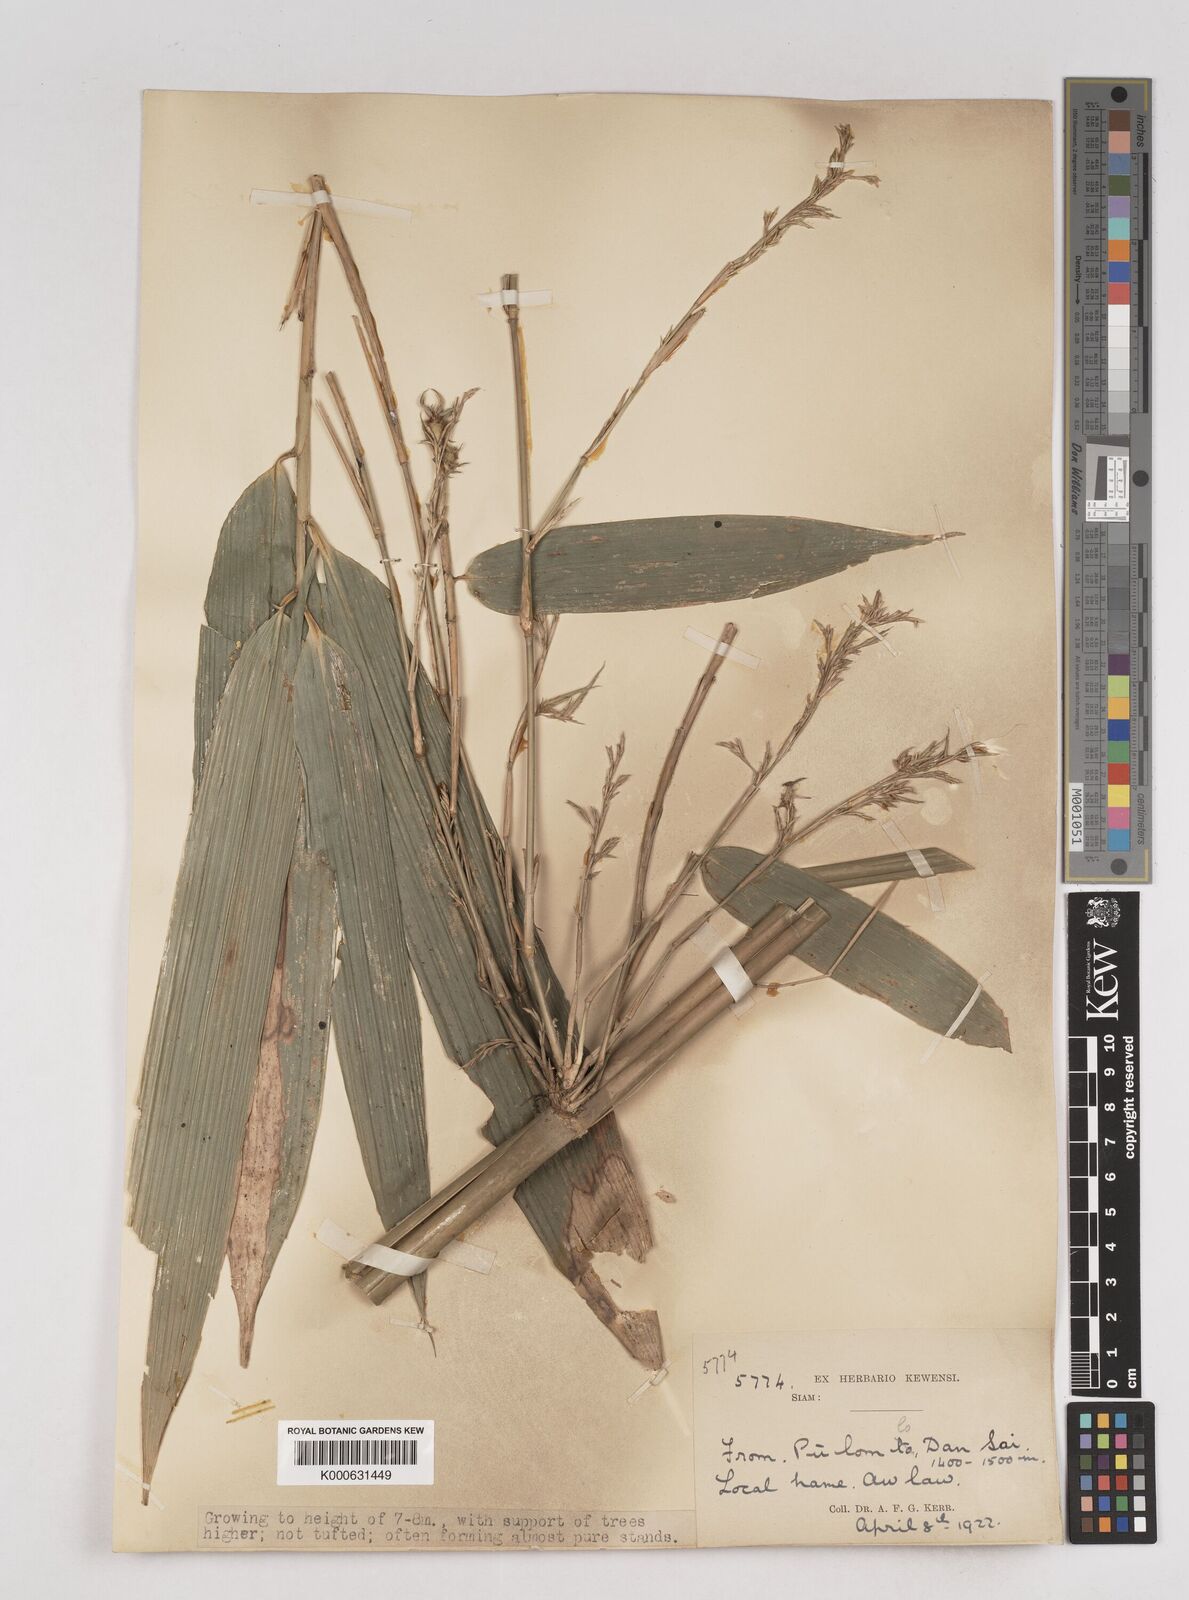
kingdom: Plantae
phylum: Tracheophyta
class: Liliopsida
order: Poales
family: Poaceae
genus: Schizostachyum
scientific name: Schizostachyum
